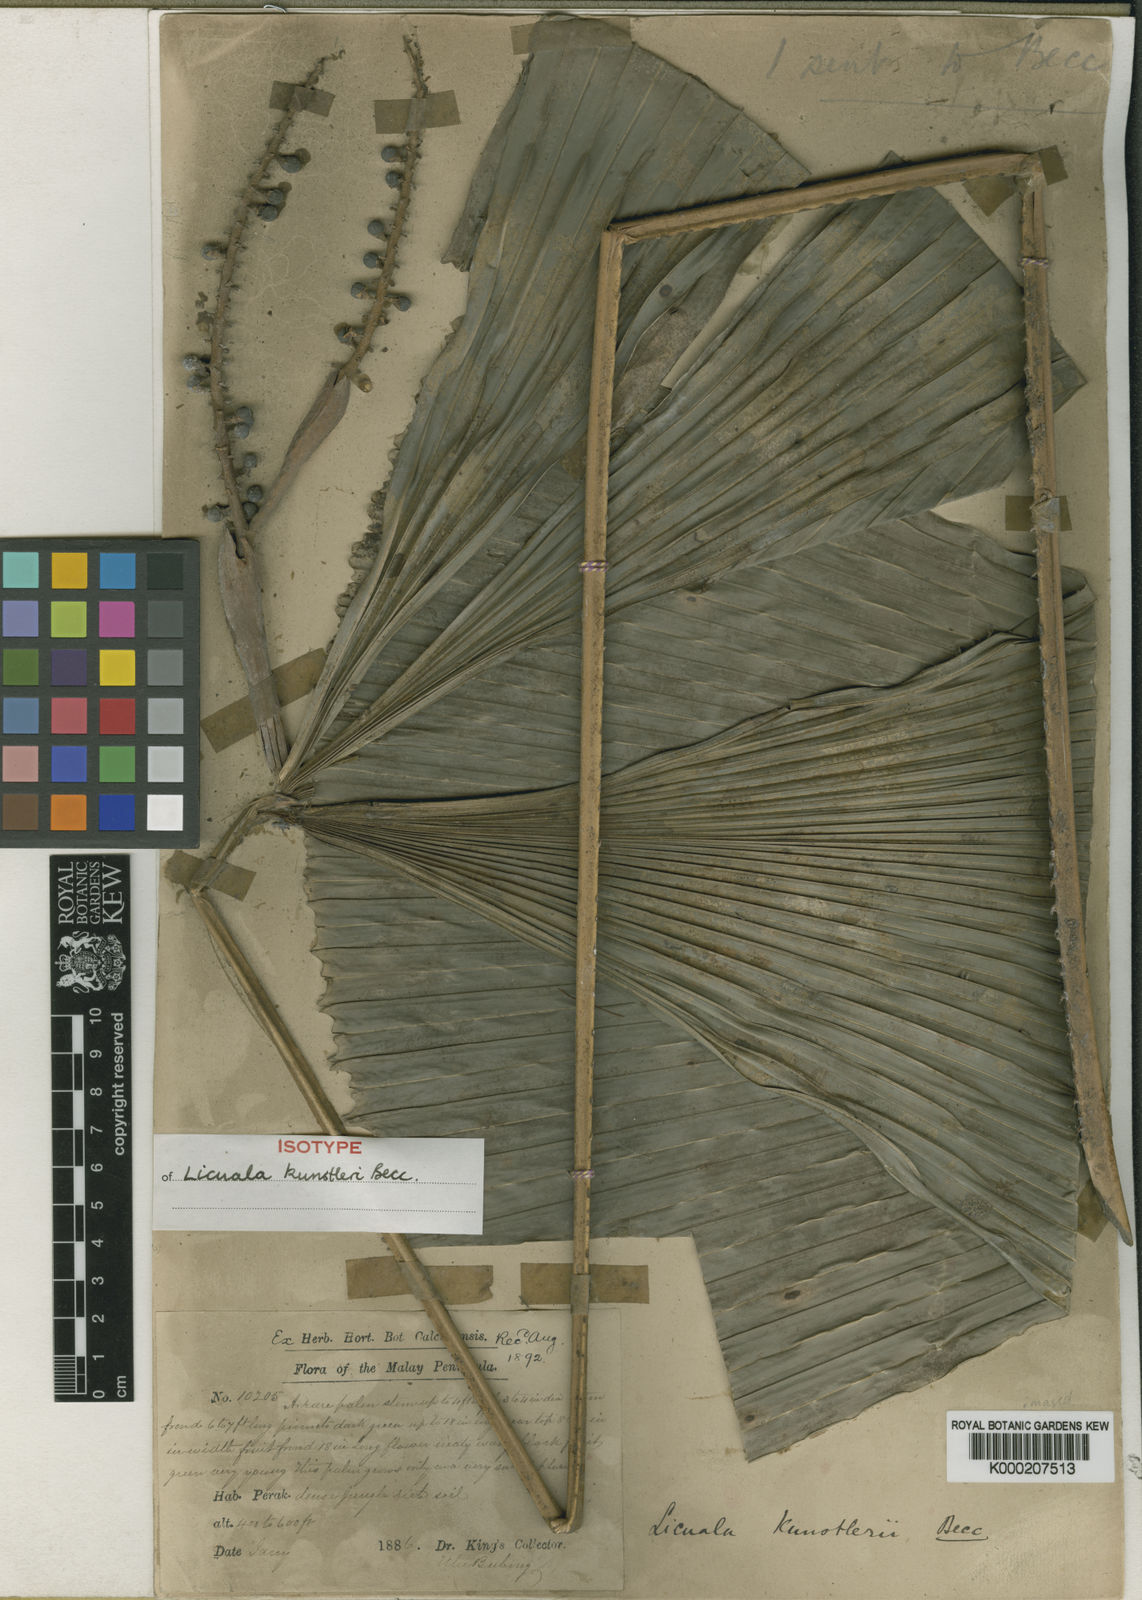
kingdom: Plantae
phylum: Tracheophyta
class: Liliopsida
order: Arecales
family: Arecaceae
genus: Licuala
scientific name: Licuala kunstleri
